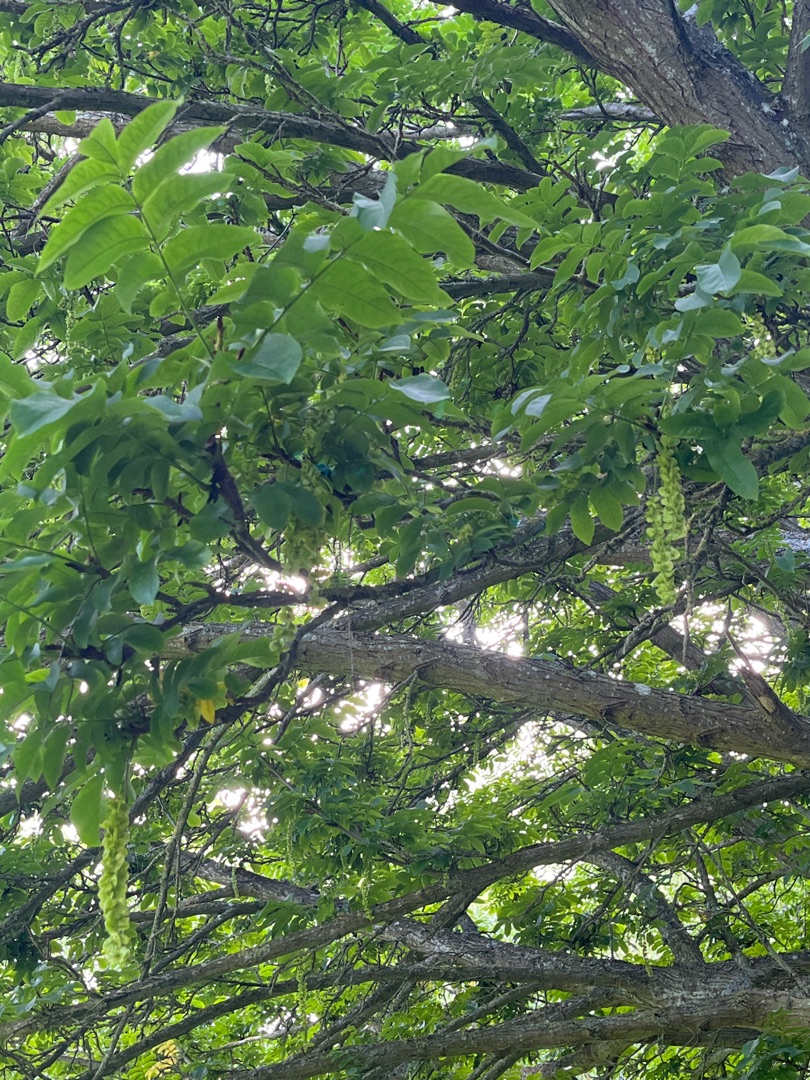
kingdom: Plantae
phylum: Tracheophyta
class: Magnoliopsida
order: Lamiales
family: Oleaceae
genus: Fraxinus
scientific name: Fraxinus excelsior
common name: Ask
